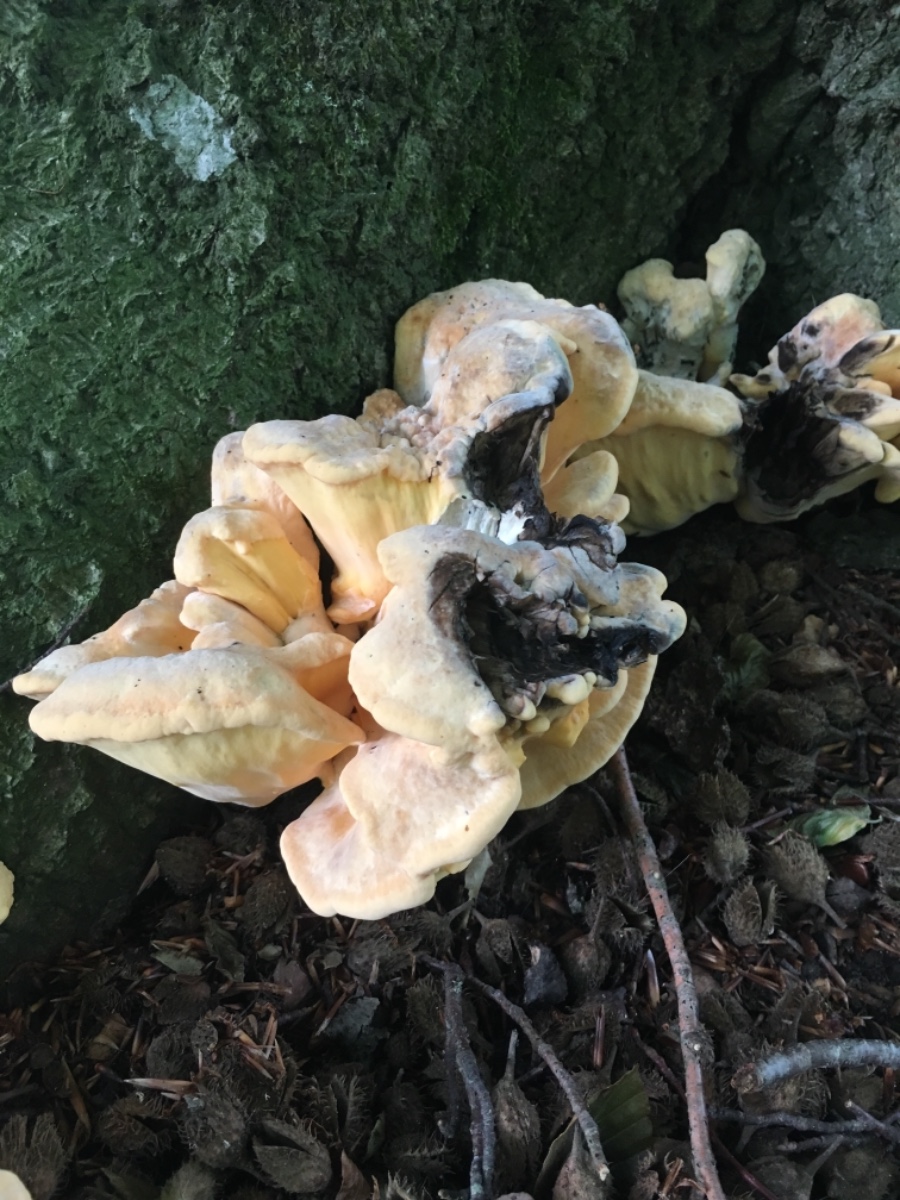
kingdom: Fungi
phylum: Basidiomycota
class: Agaricomycetes
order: Polyporales
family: Meripilaceae
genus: Meripilus
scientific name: Meripilus giganteus
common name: kæmpeporesvamp
